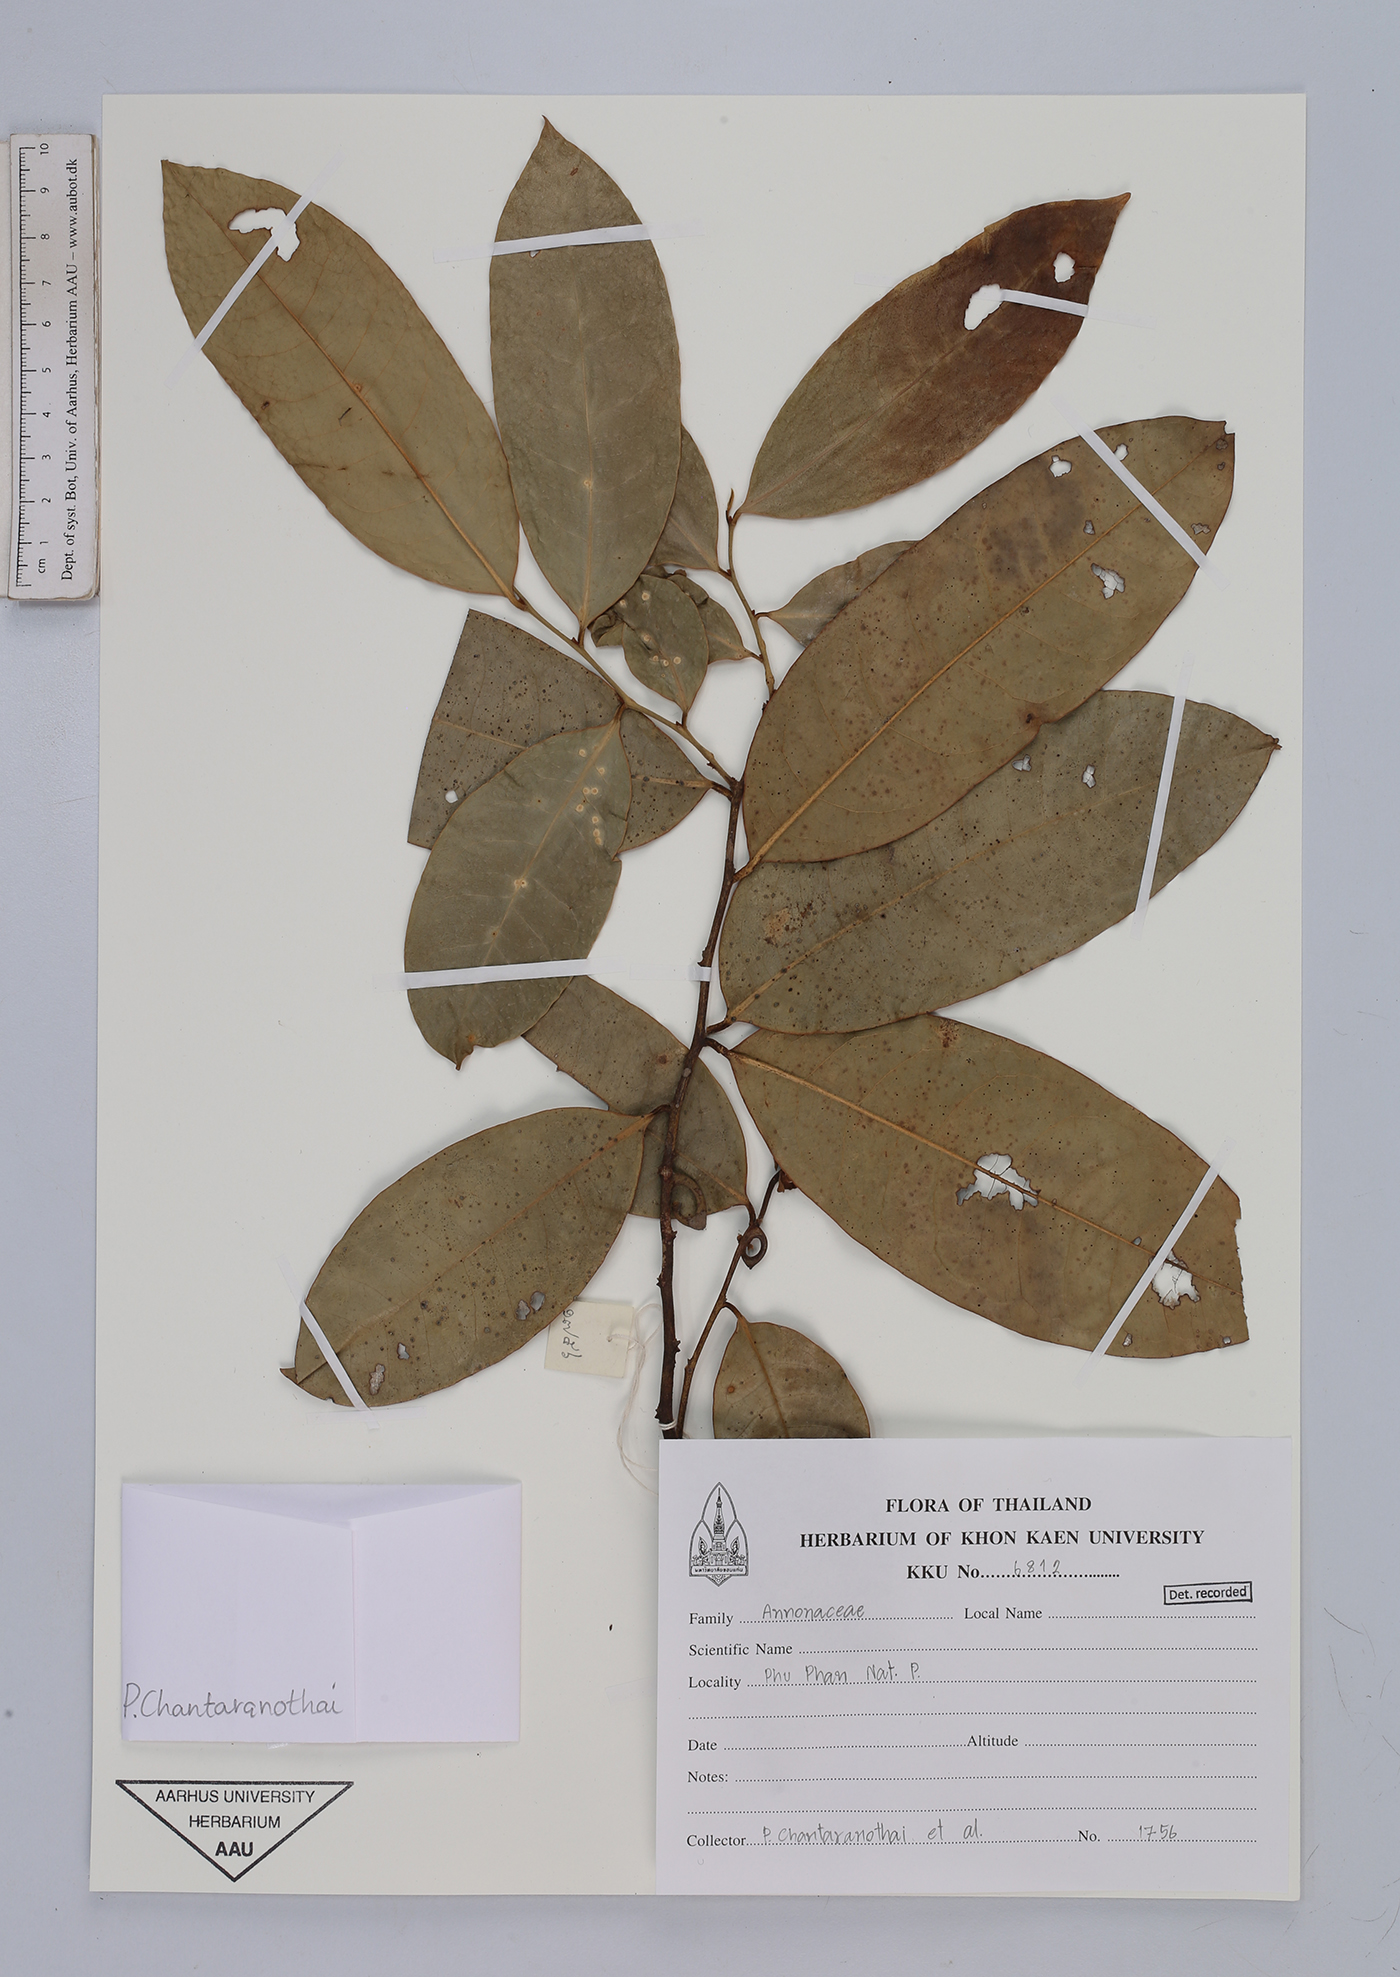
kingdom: Plantae
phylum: Tracheophyta
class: Magnoliopsida
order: Magnoliales
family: Annonaceae
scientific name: Annonaceae
